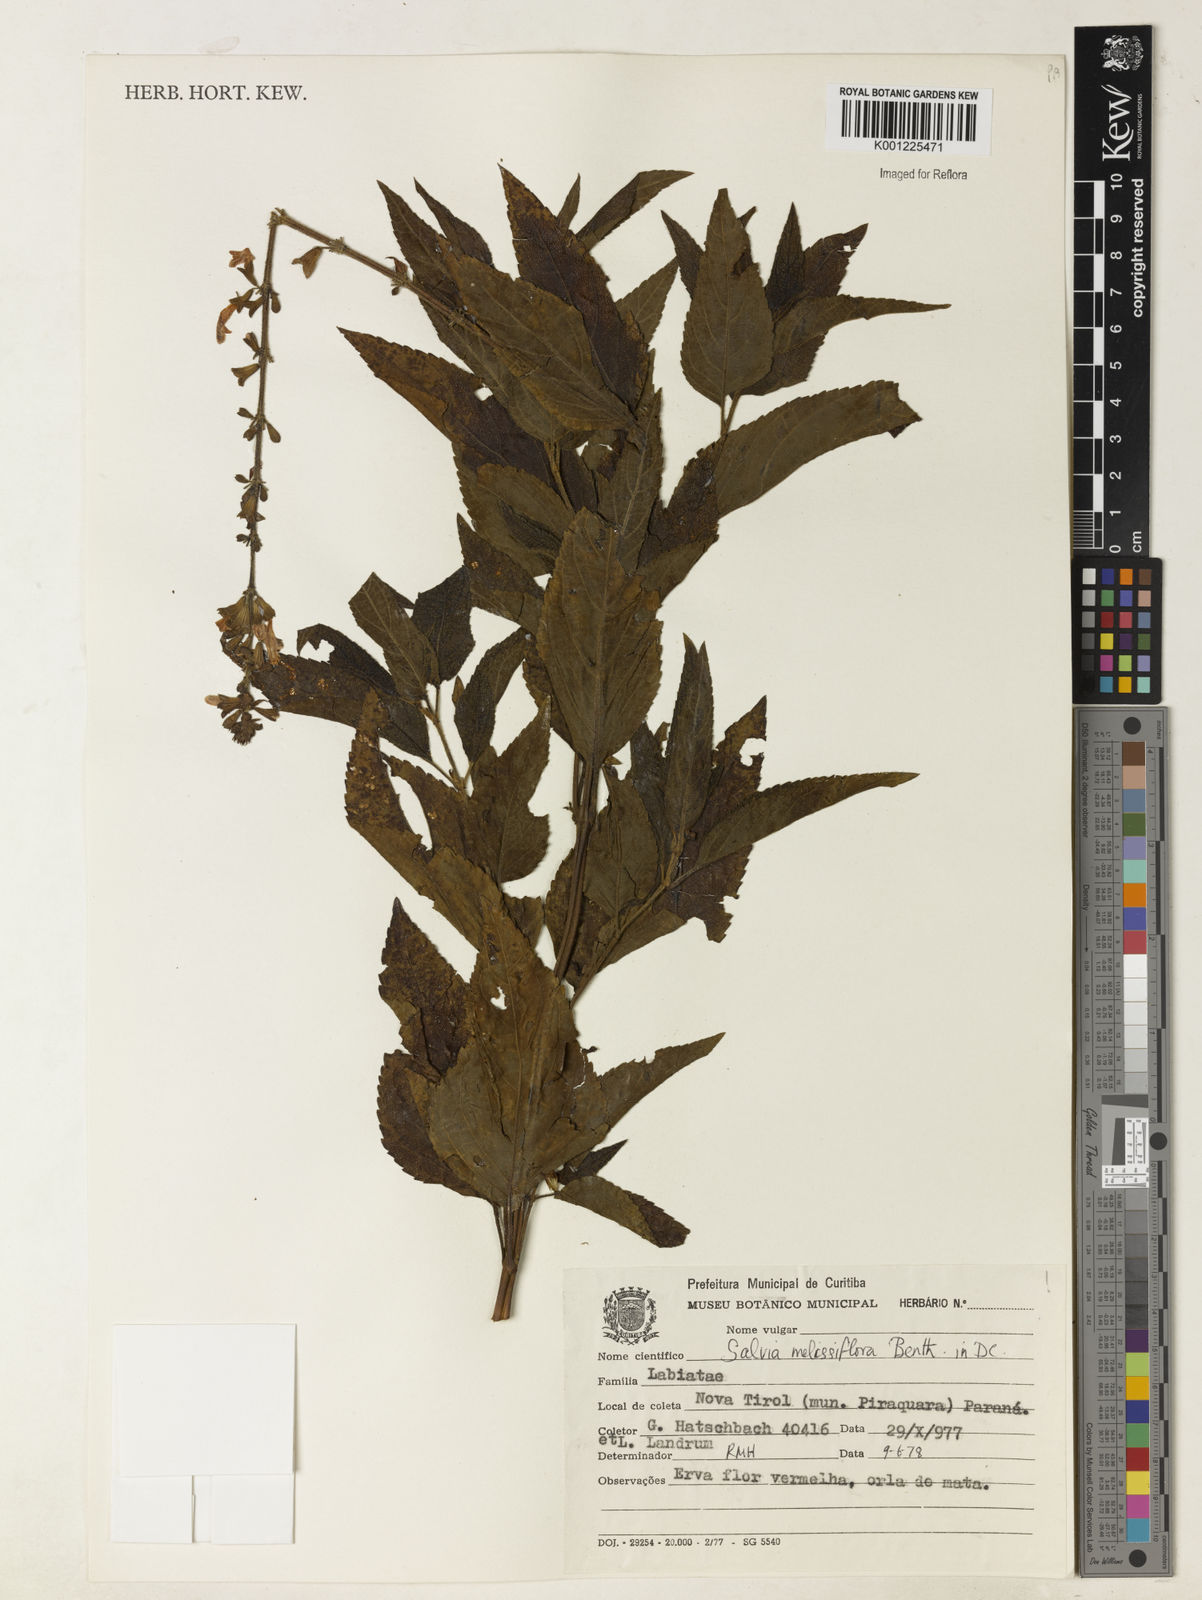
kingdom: Plantae
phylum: Tracheophyta
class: Magnoliopsida
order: Lamiales
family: Lamiaceae
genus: Salvia
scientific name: Salvia melissiflora
